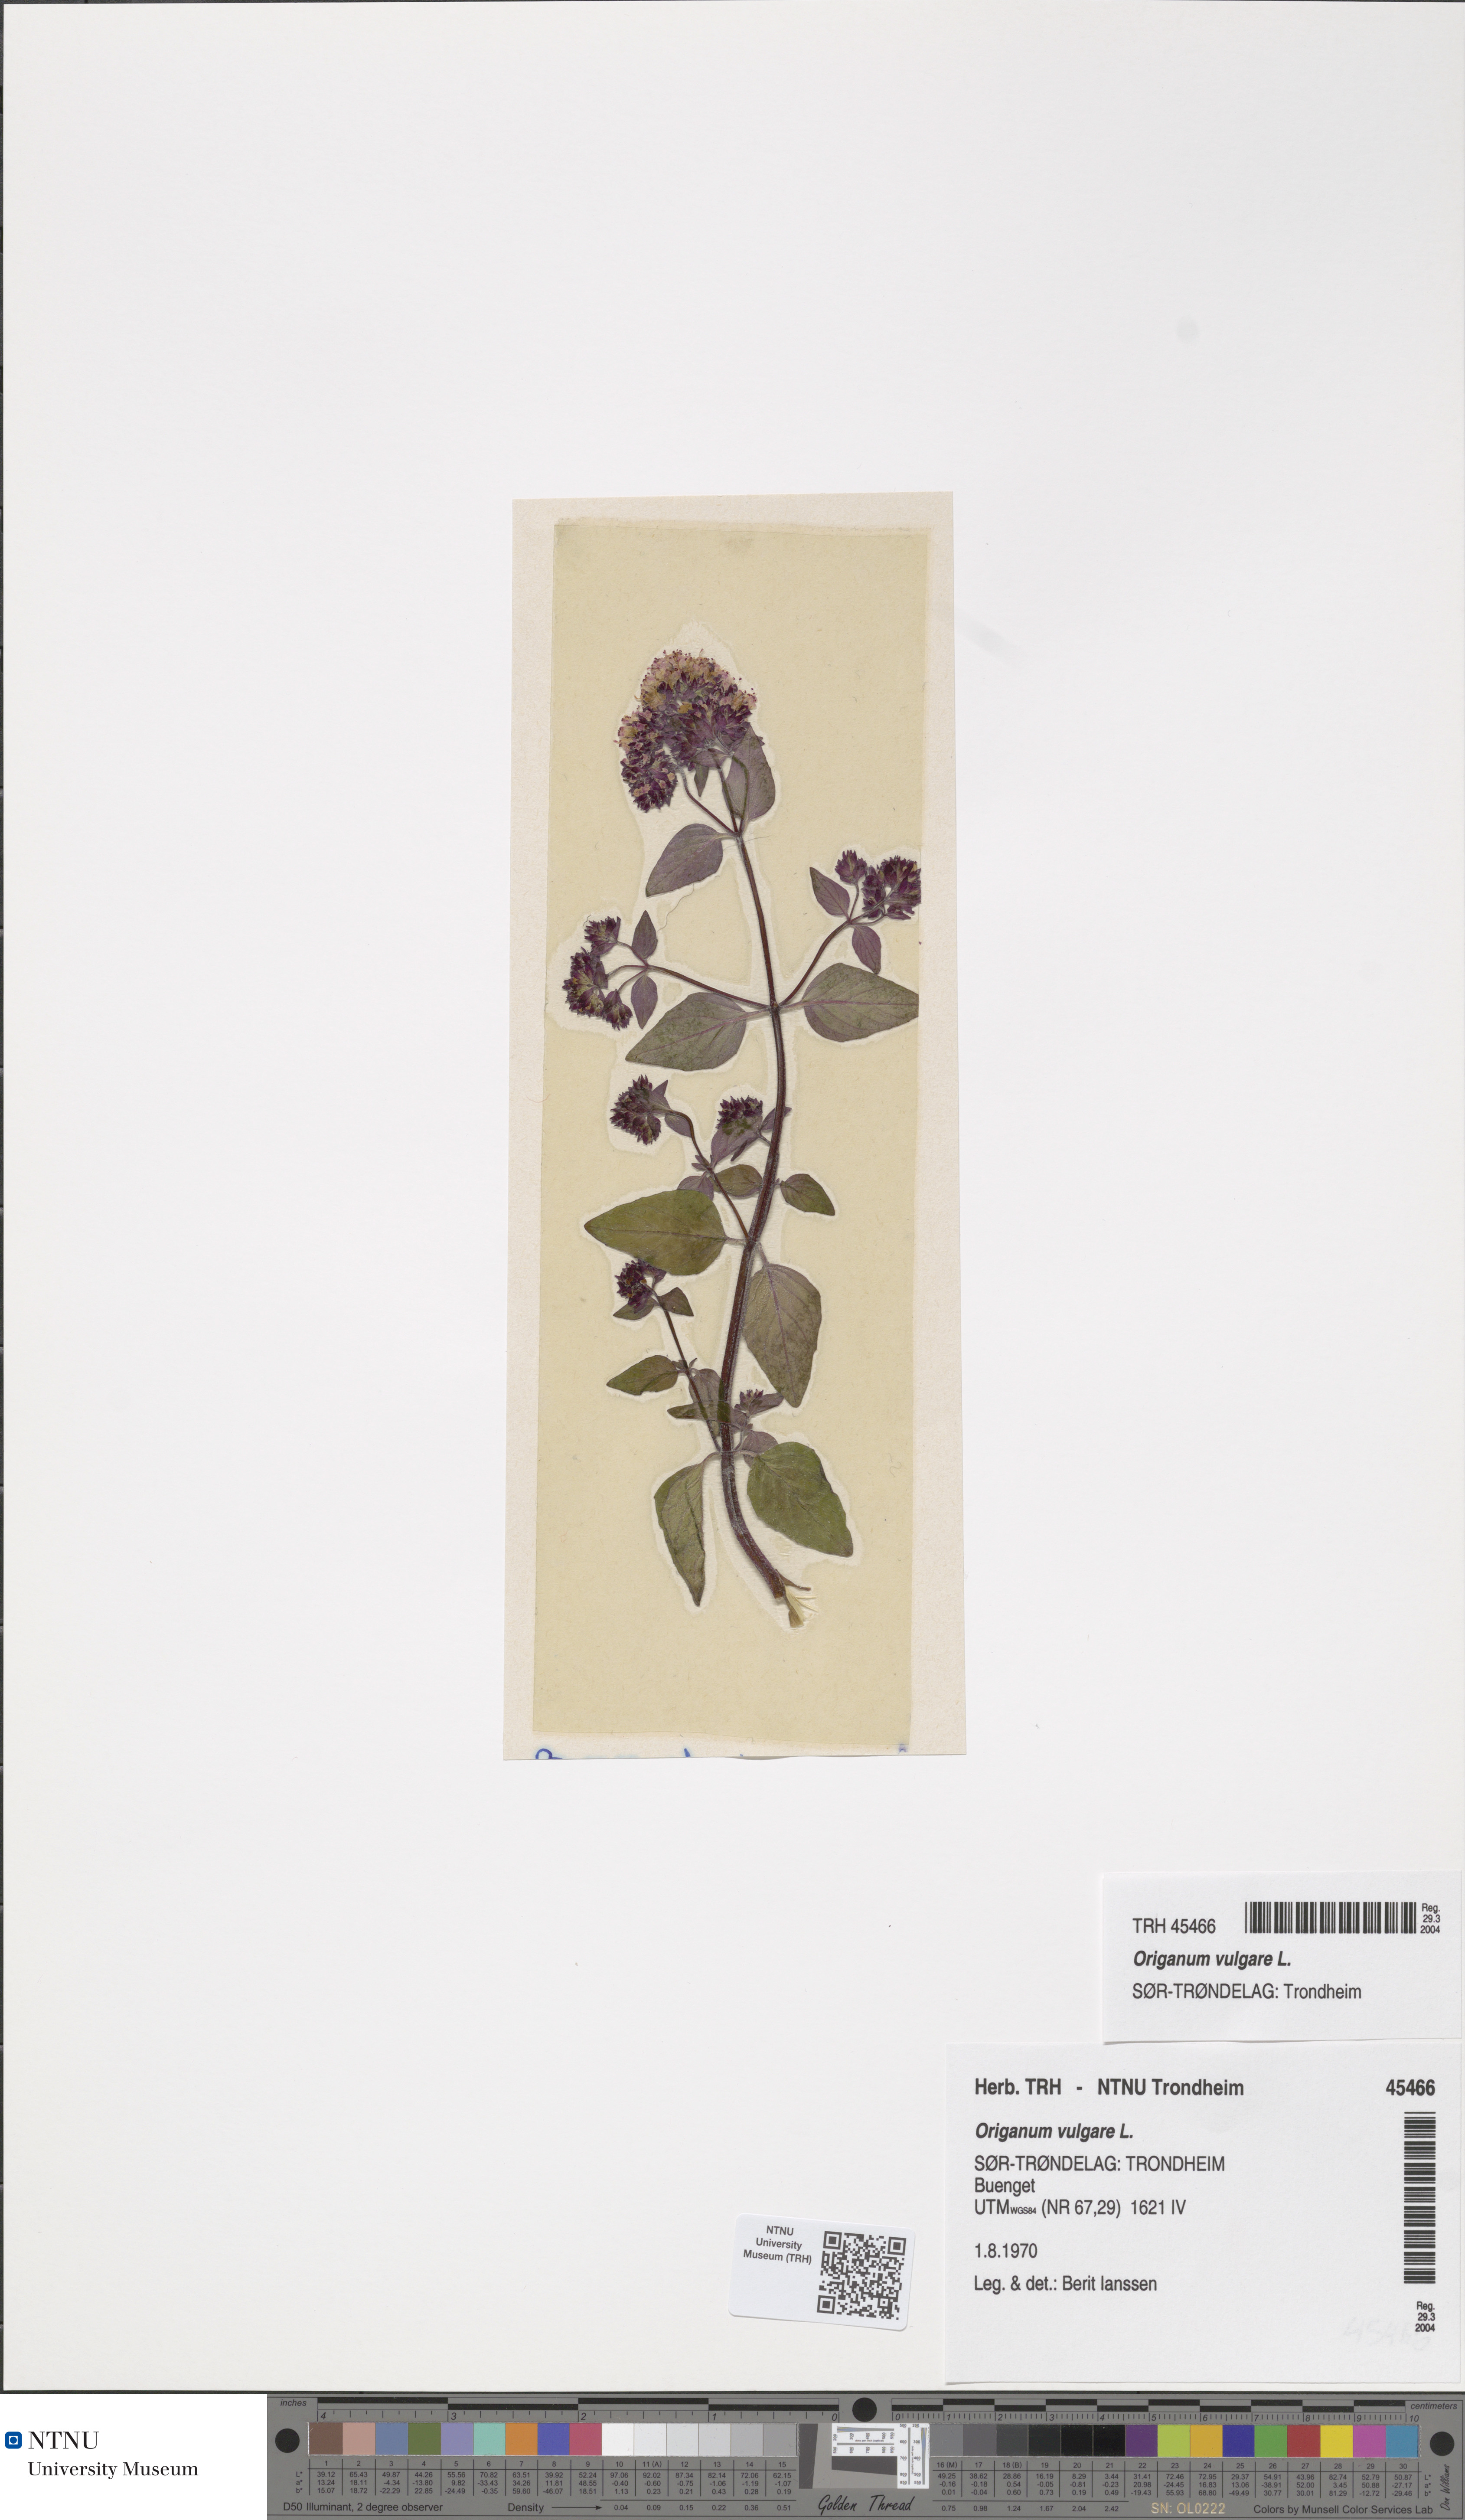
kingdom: Plantae
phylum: Tracheophyta
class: Magnoliopsida
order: Lamiales
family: Lamiaceae
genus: Origanum
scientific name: Origanum vulgare
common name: Wild marjoram
